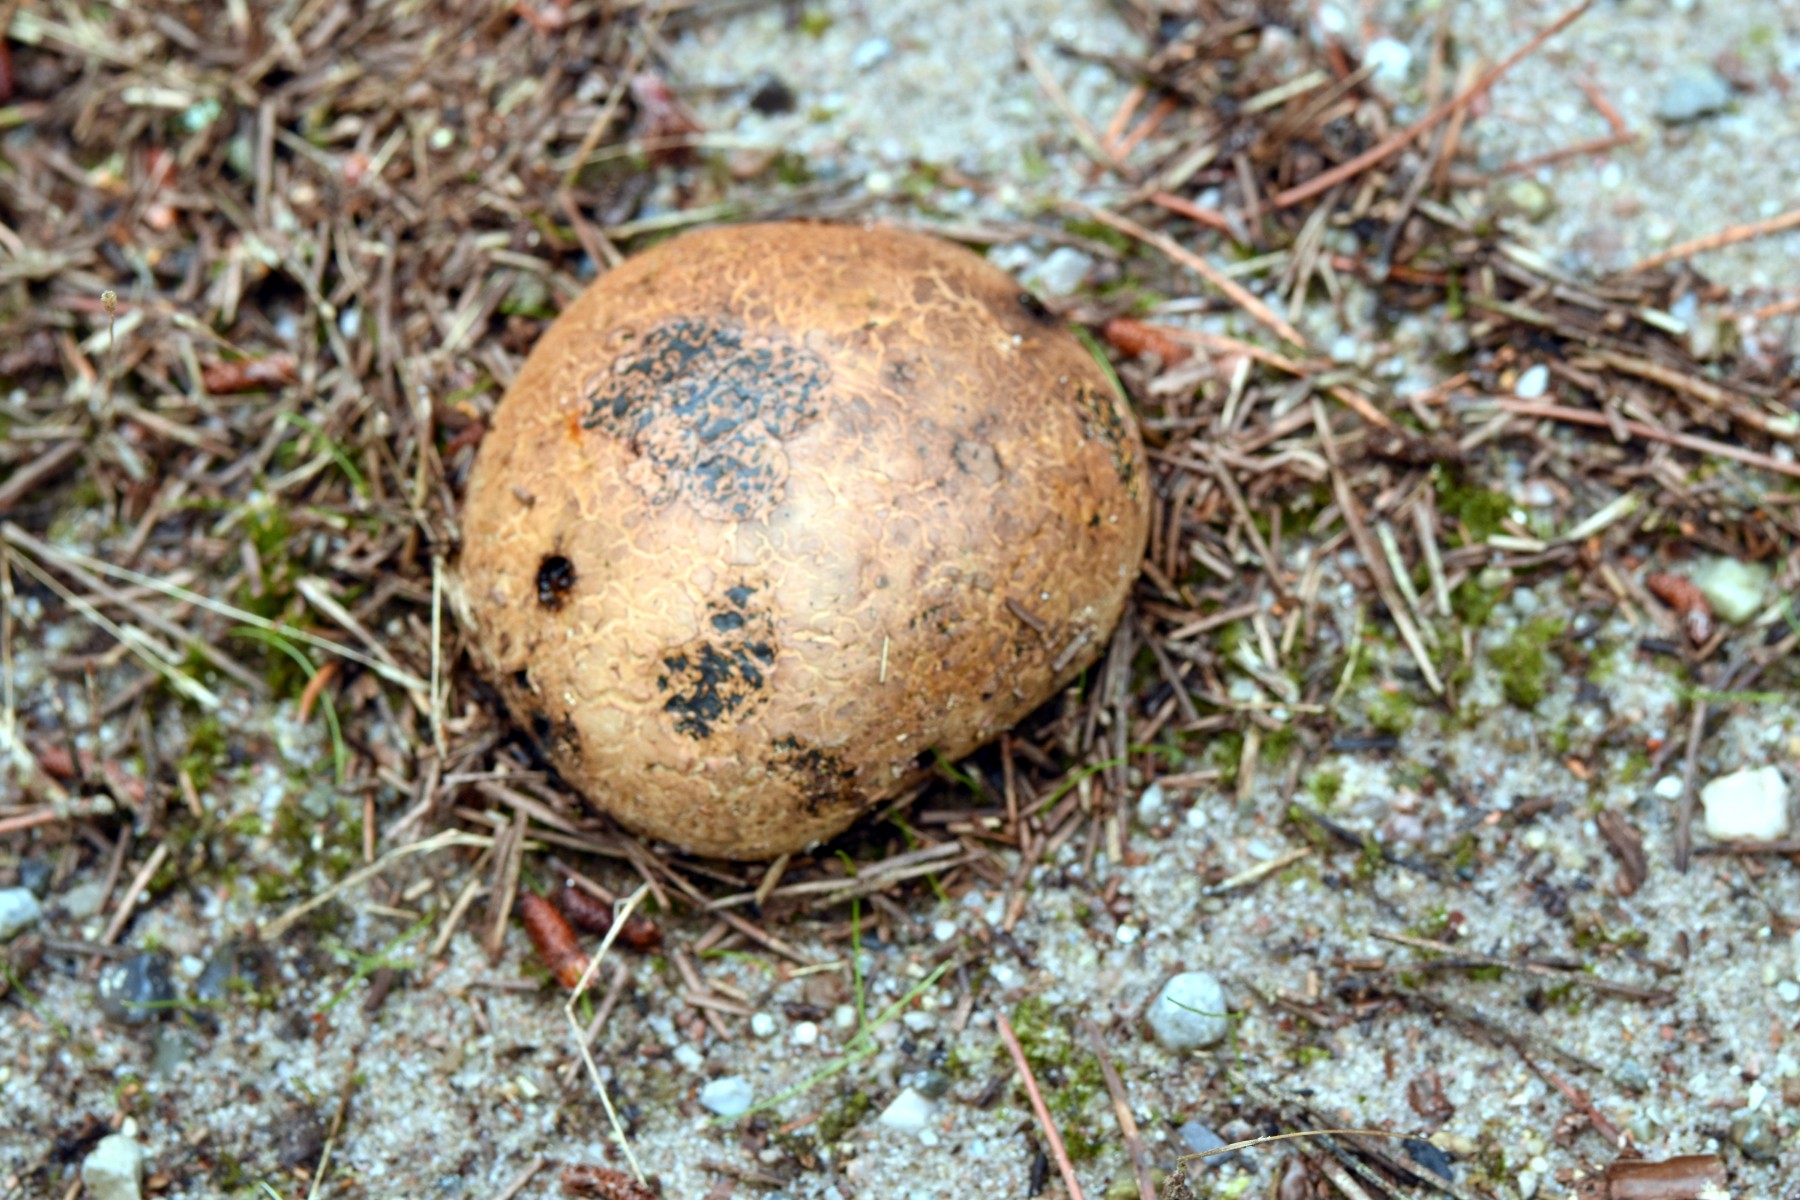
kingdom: Fungi
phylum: Basidiomycota
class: Agaricomycetes
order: Boletales
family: Sclerodermataceae
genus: Pisolithus
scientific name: Pisolithus capsulifer
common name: farvebold
